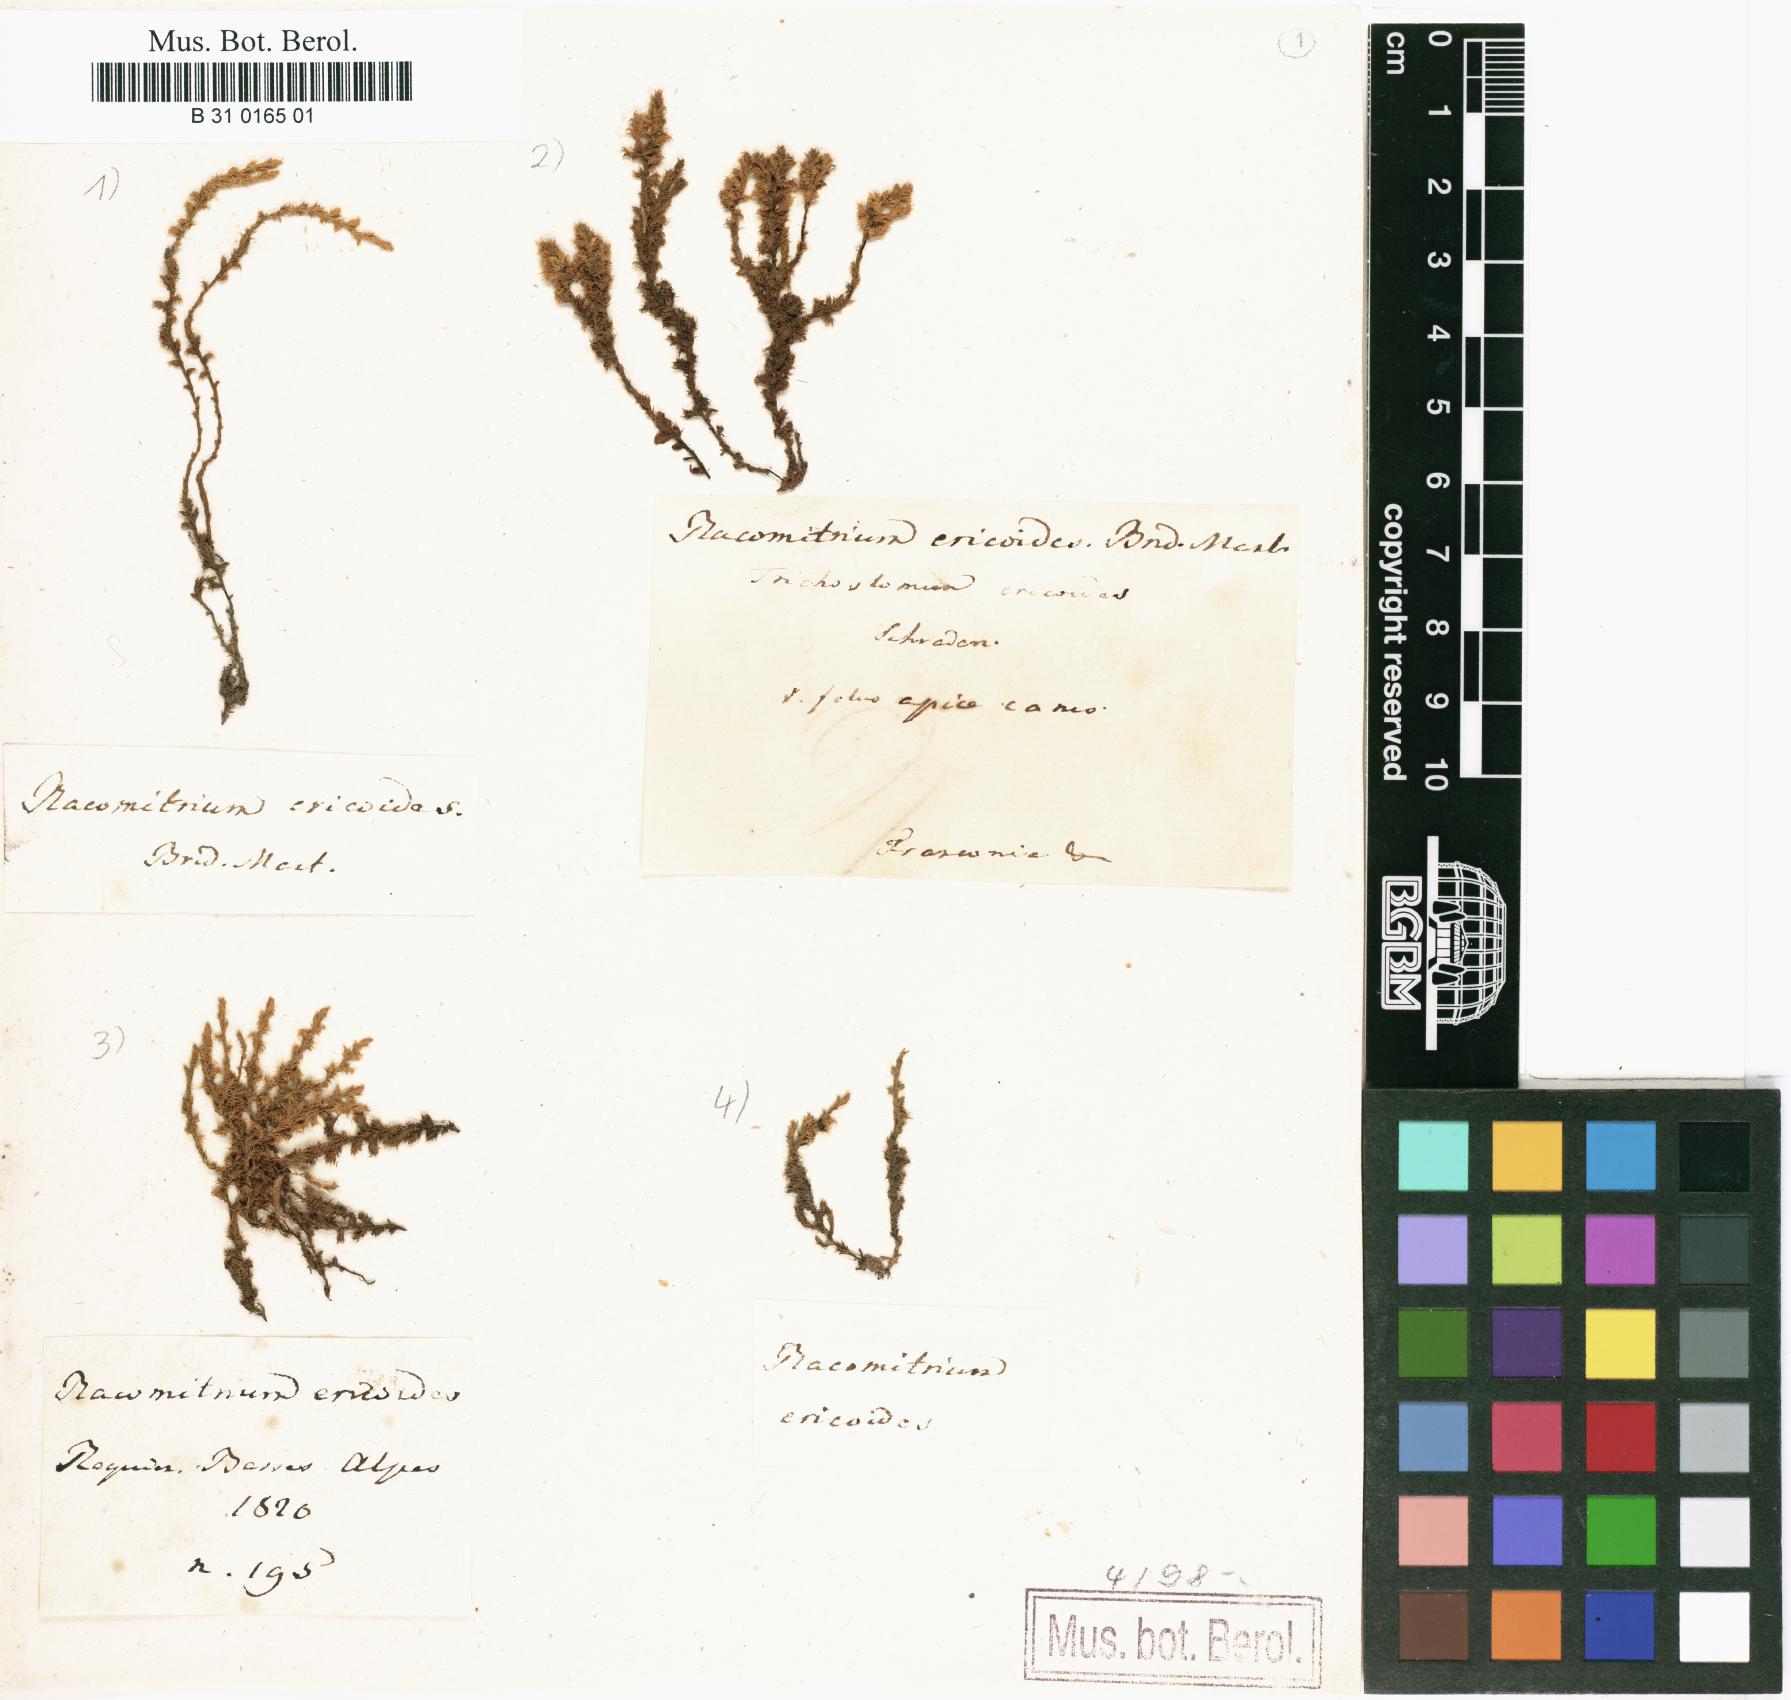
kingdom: Plantae
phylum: Bryophyta
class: Bryopsida
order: Grimmiales
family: Grimmiaceae
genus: Niphotrichum
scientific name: Niphotrichum ericoides
